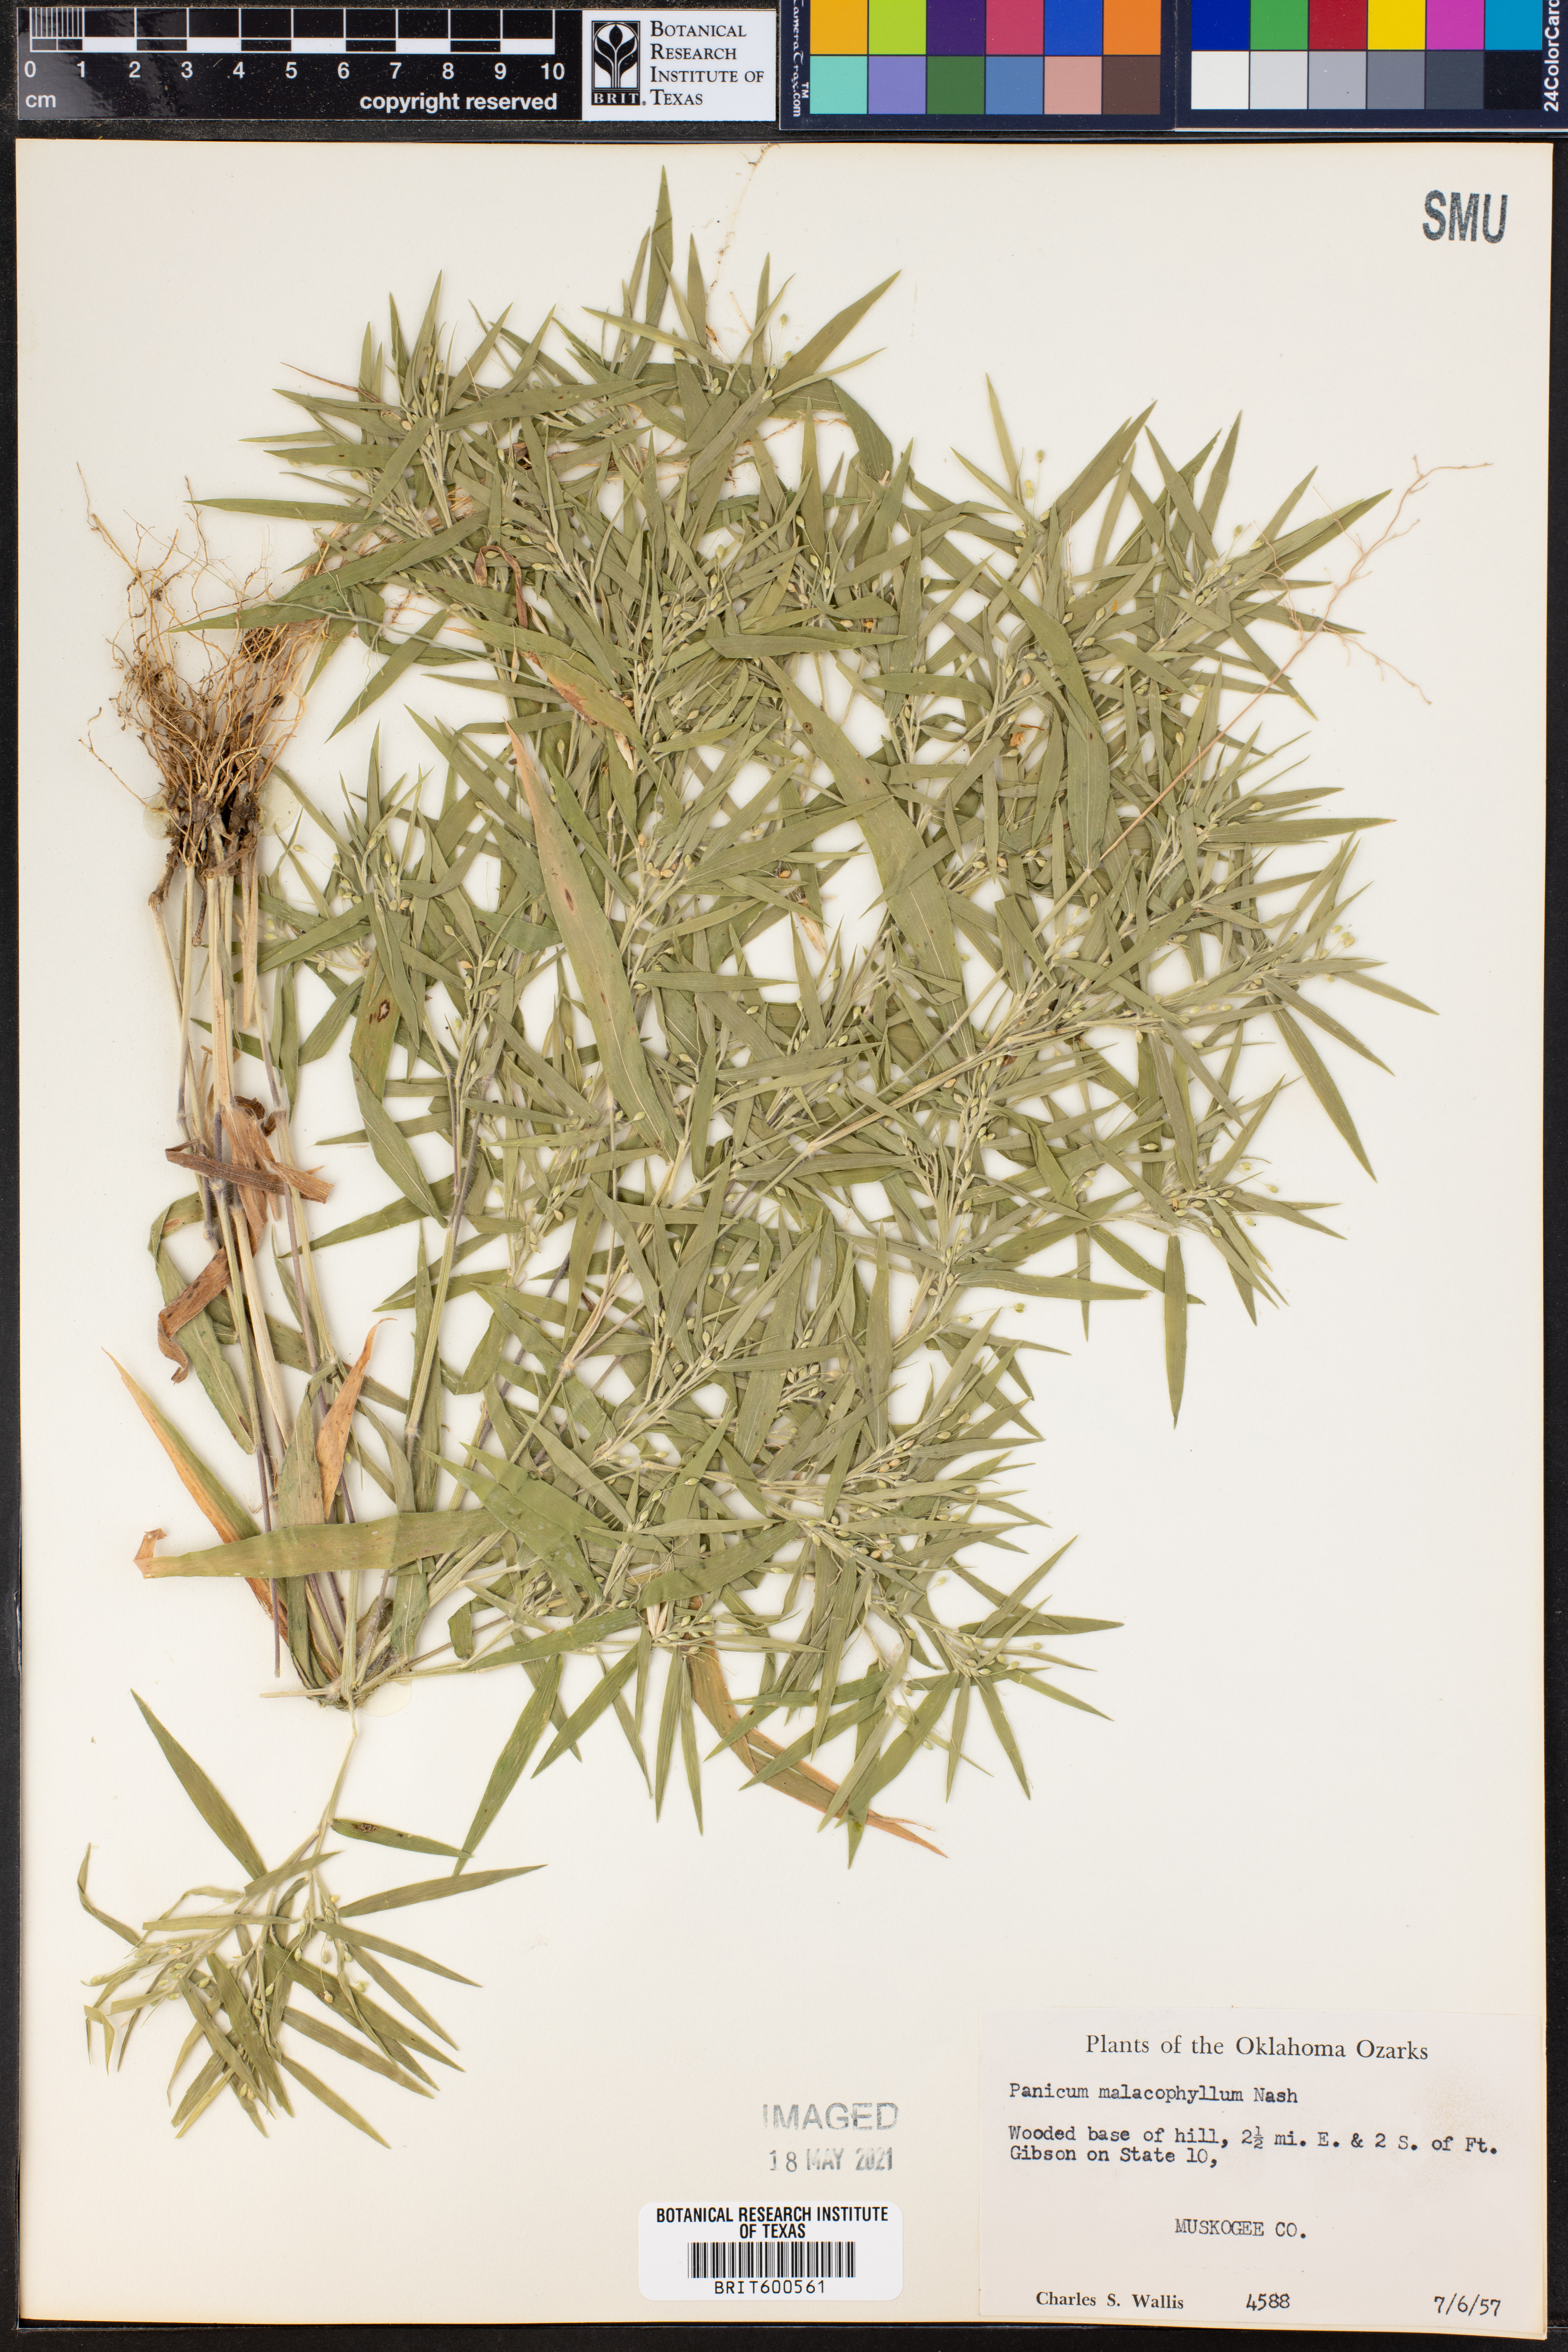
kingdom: Plantae
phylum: Tracheophyta
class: Liliopsida
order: Poales
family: Poaceae
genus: Dichanthelium
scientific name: Dichanthelium malacophyllum
